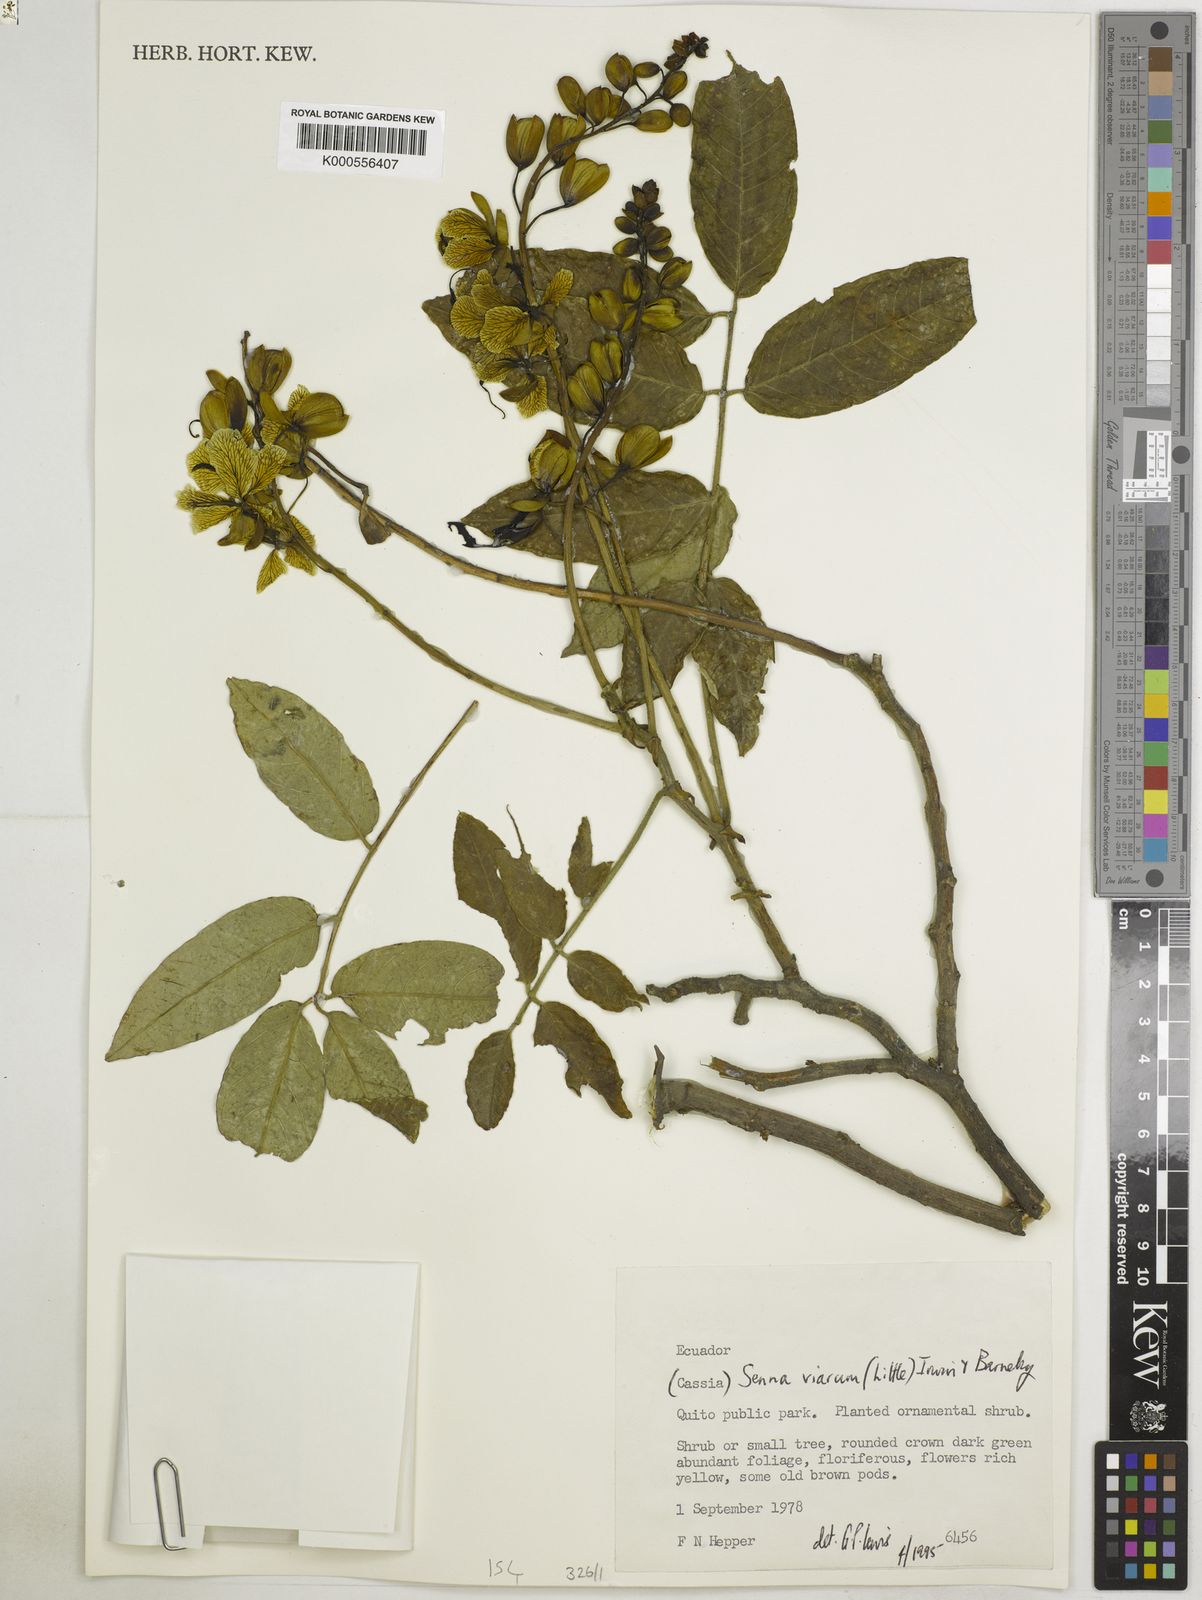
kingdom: Plantae
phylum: Tracheophyta
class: Magnoliopsida
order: Fabales
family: Fabaceae
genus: Senna
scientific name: Senna viarum
